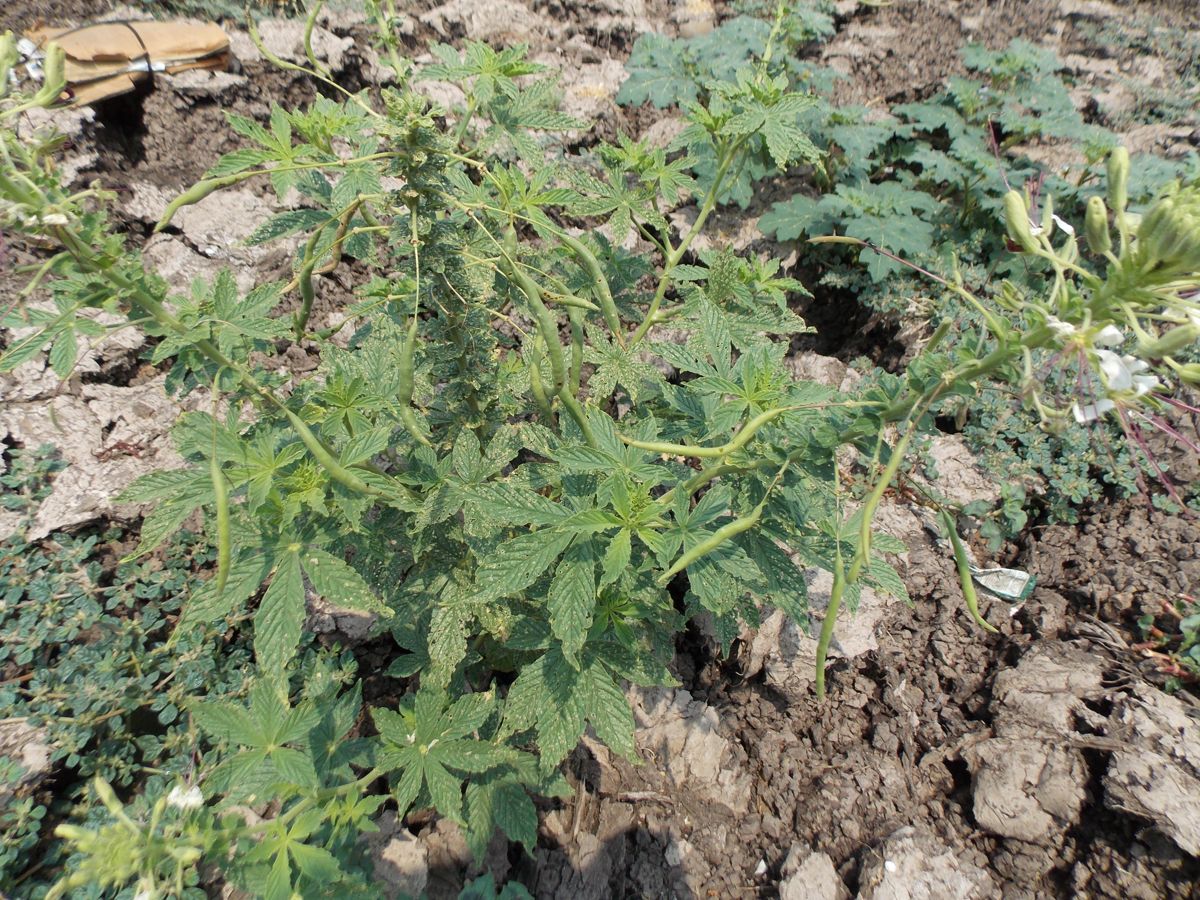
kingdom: Plantae
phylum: Tracheophyta
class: Magnoliopsida
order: Brassicales
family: Cleomaceae
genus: Tarenaya
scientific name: Tarenaya spinosa
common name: Spiny spiderflower
